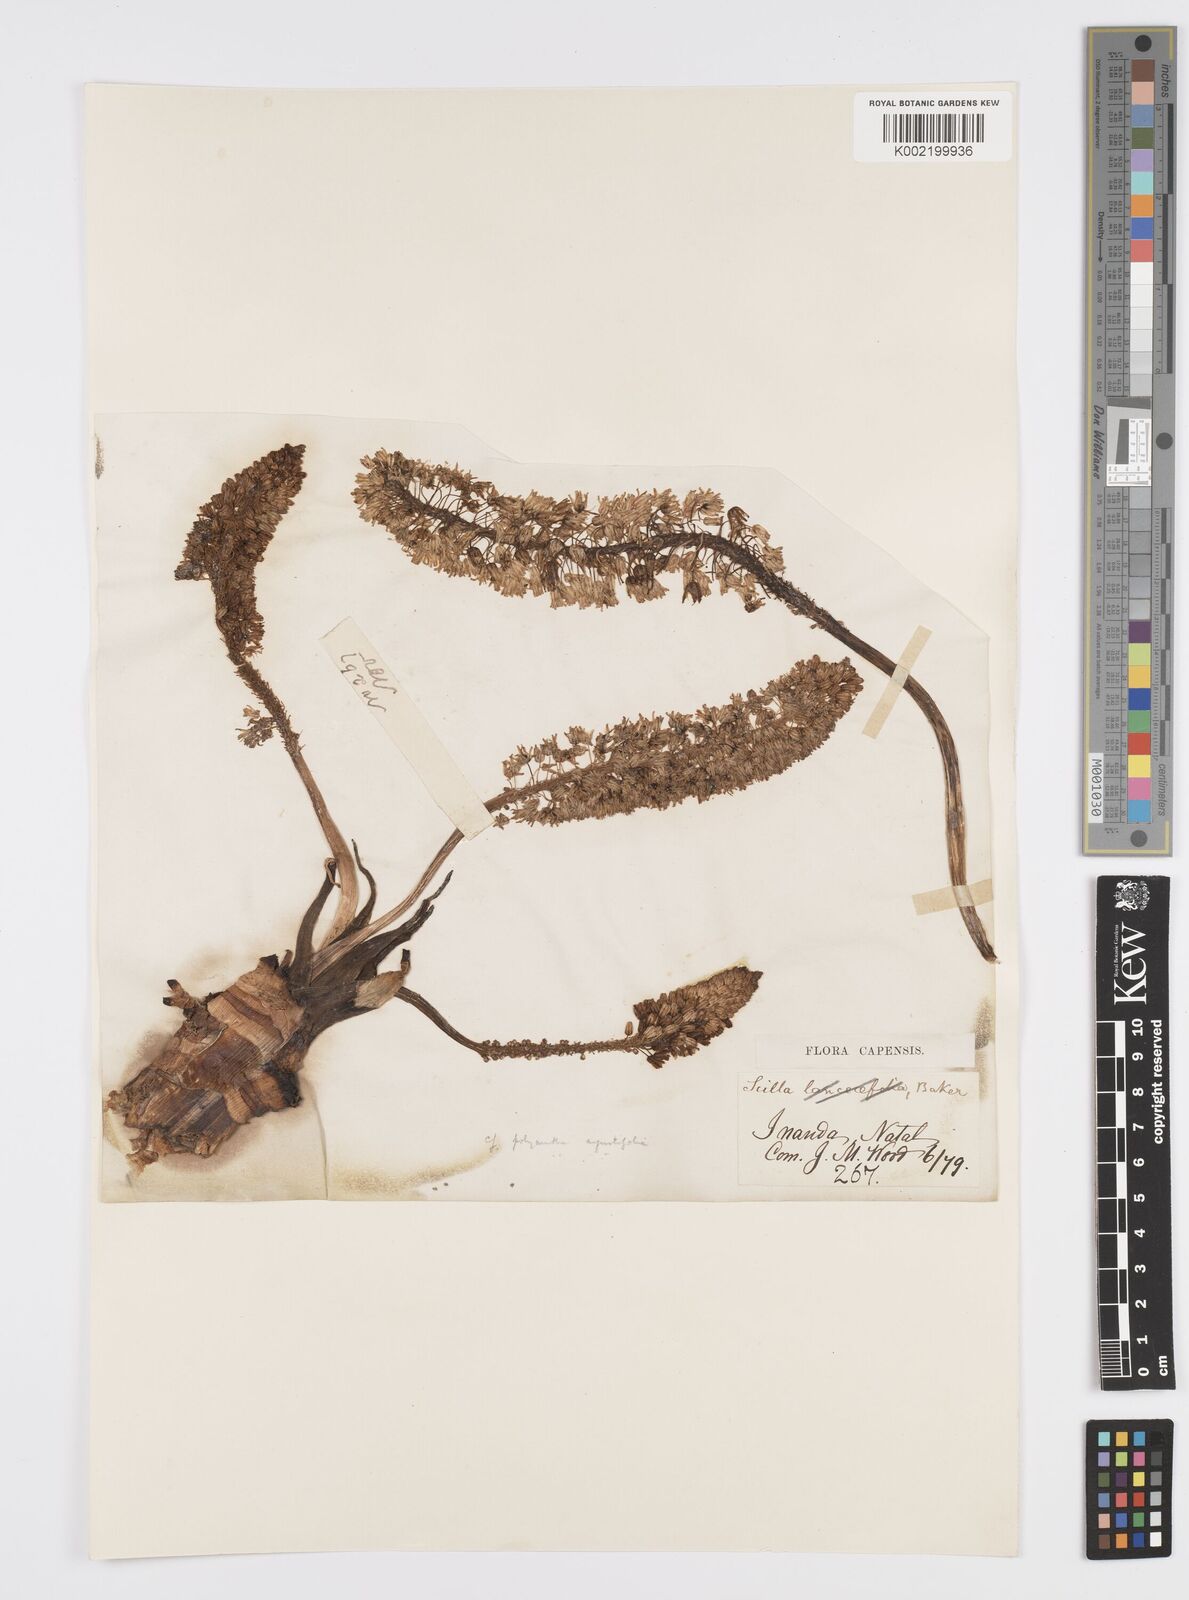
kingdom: Plantae
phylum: Tracheophyta
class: Liliopsida
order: Asparagales
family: Asparagaceae
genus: Ledebouria
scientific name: Ledebouria revoluta
